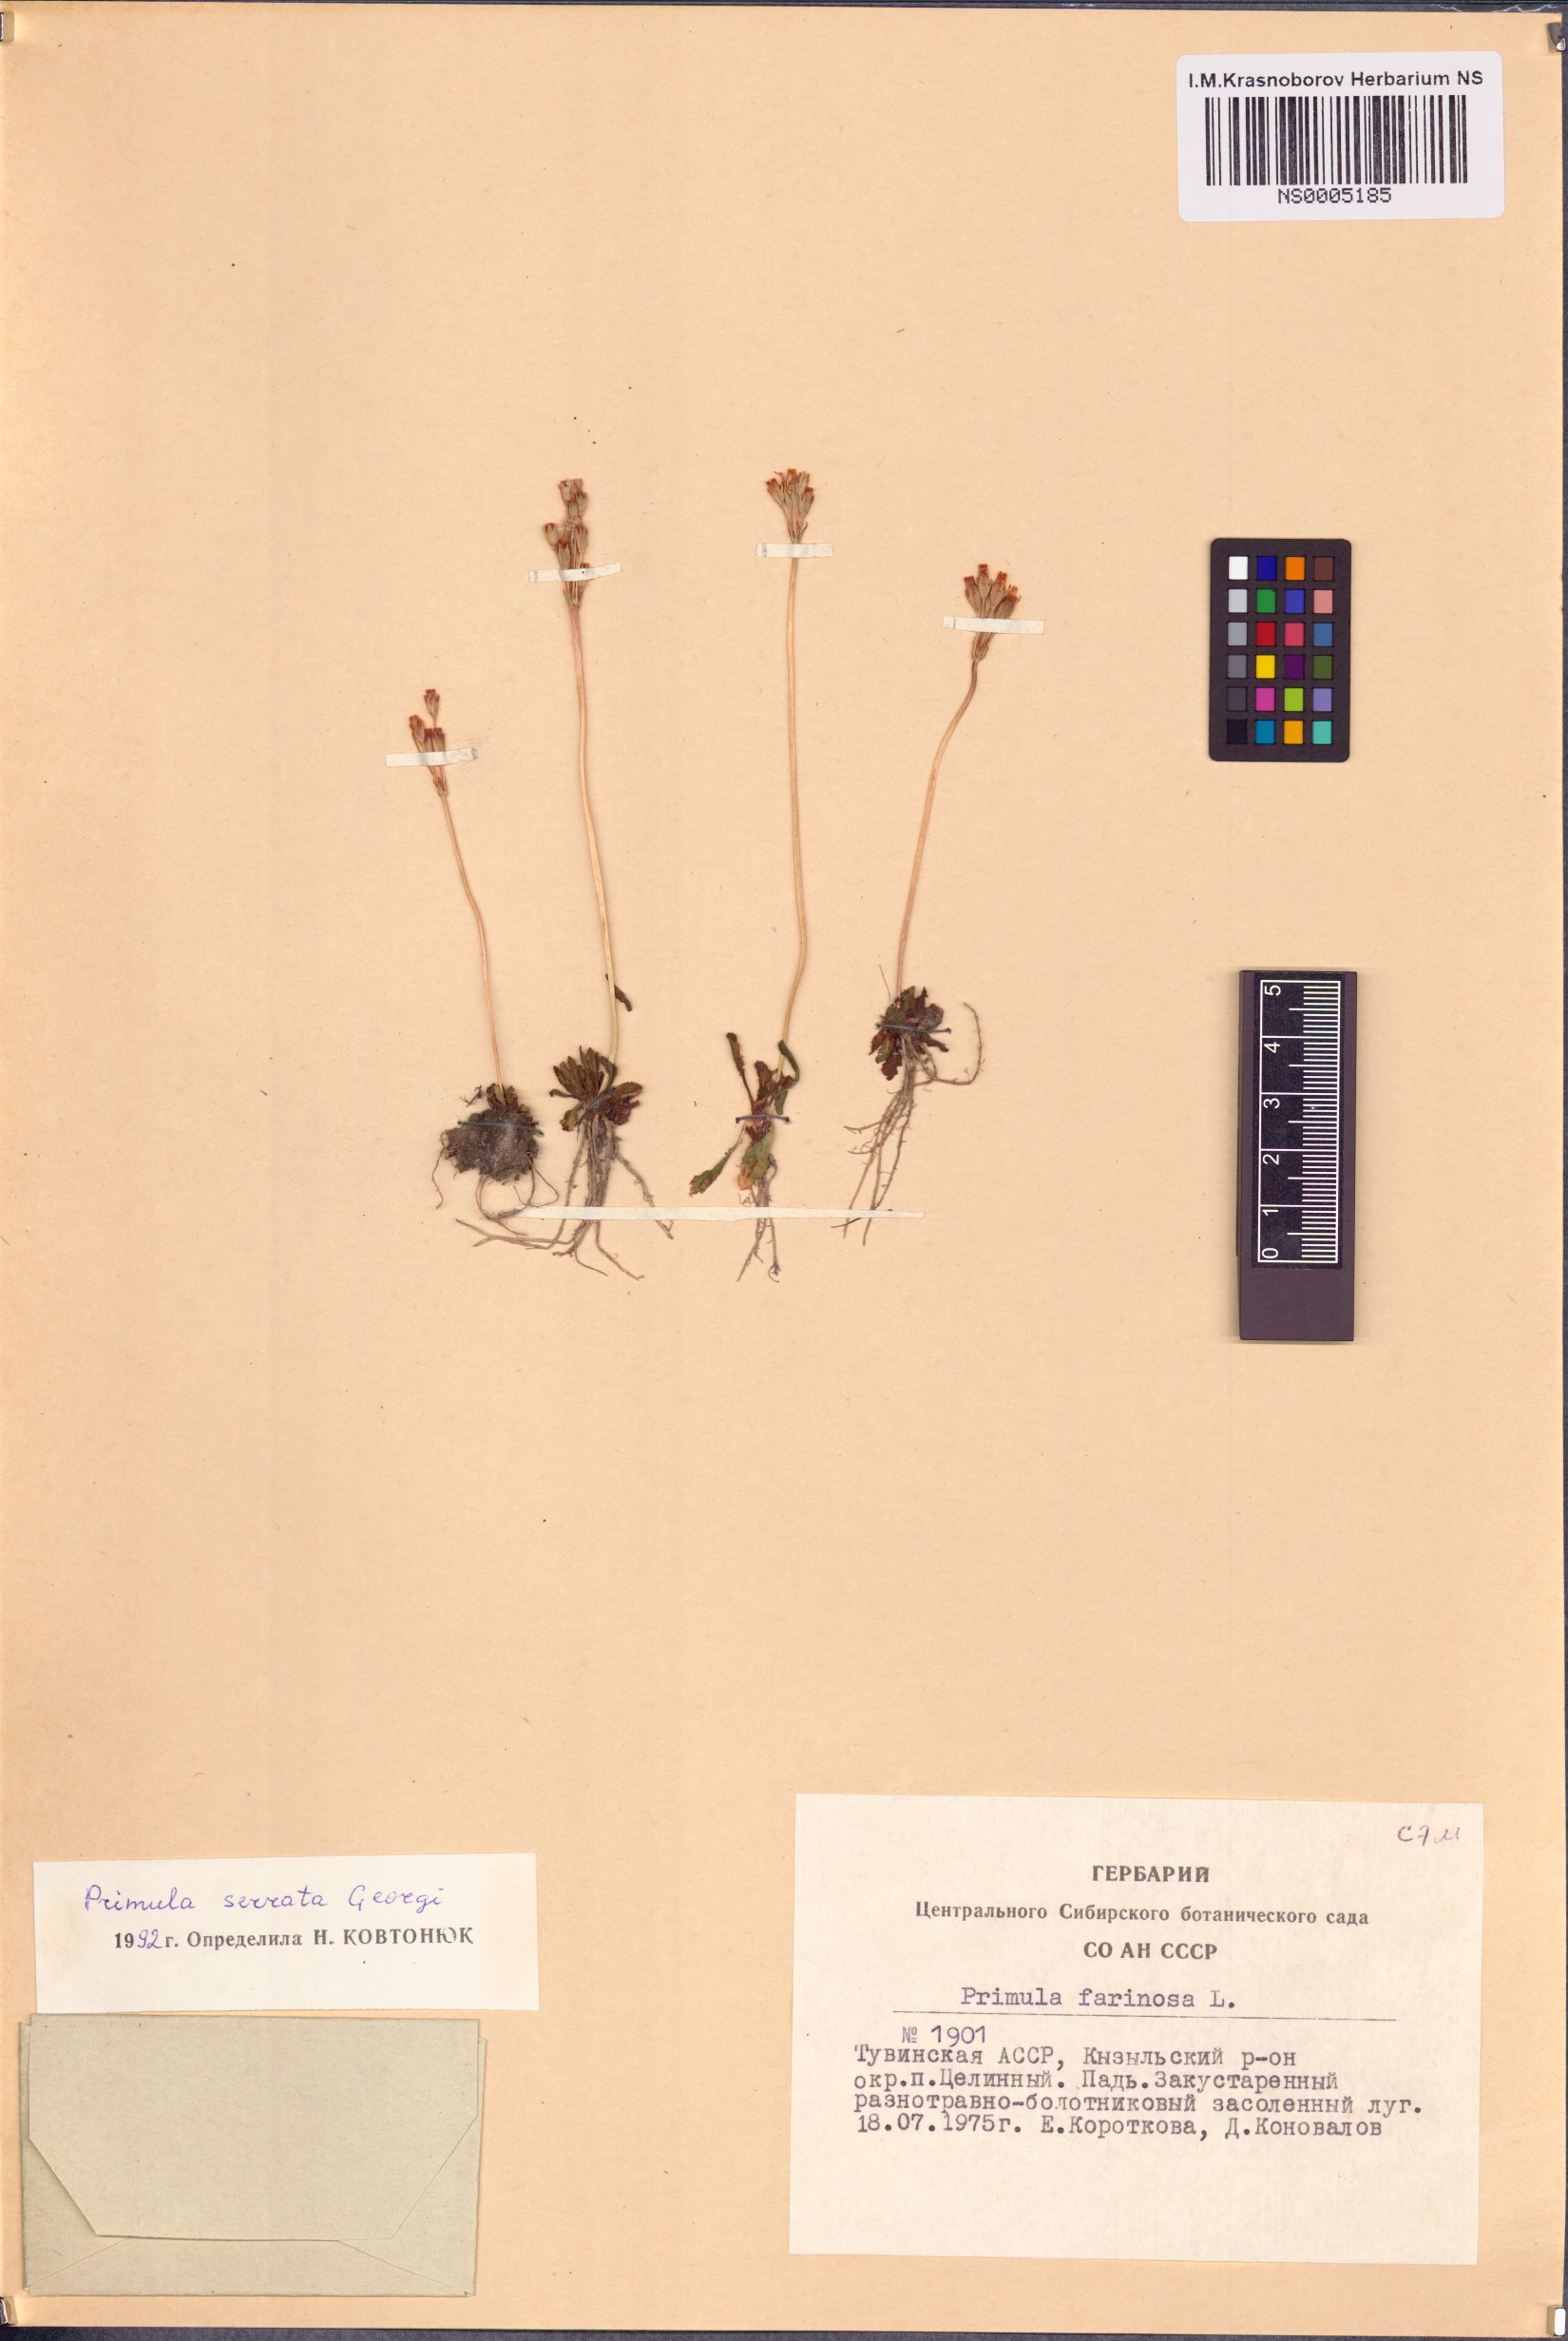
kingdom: Plantae
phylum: Tracheophyta
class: Magnoliopsida
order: Ericales
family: Primulaceae
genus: Primula
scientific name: Primula serrata
